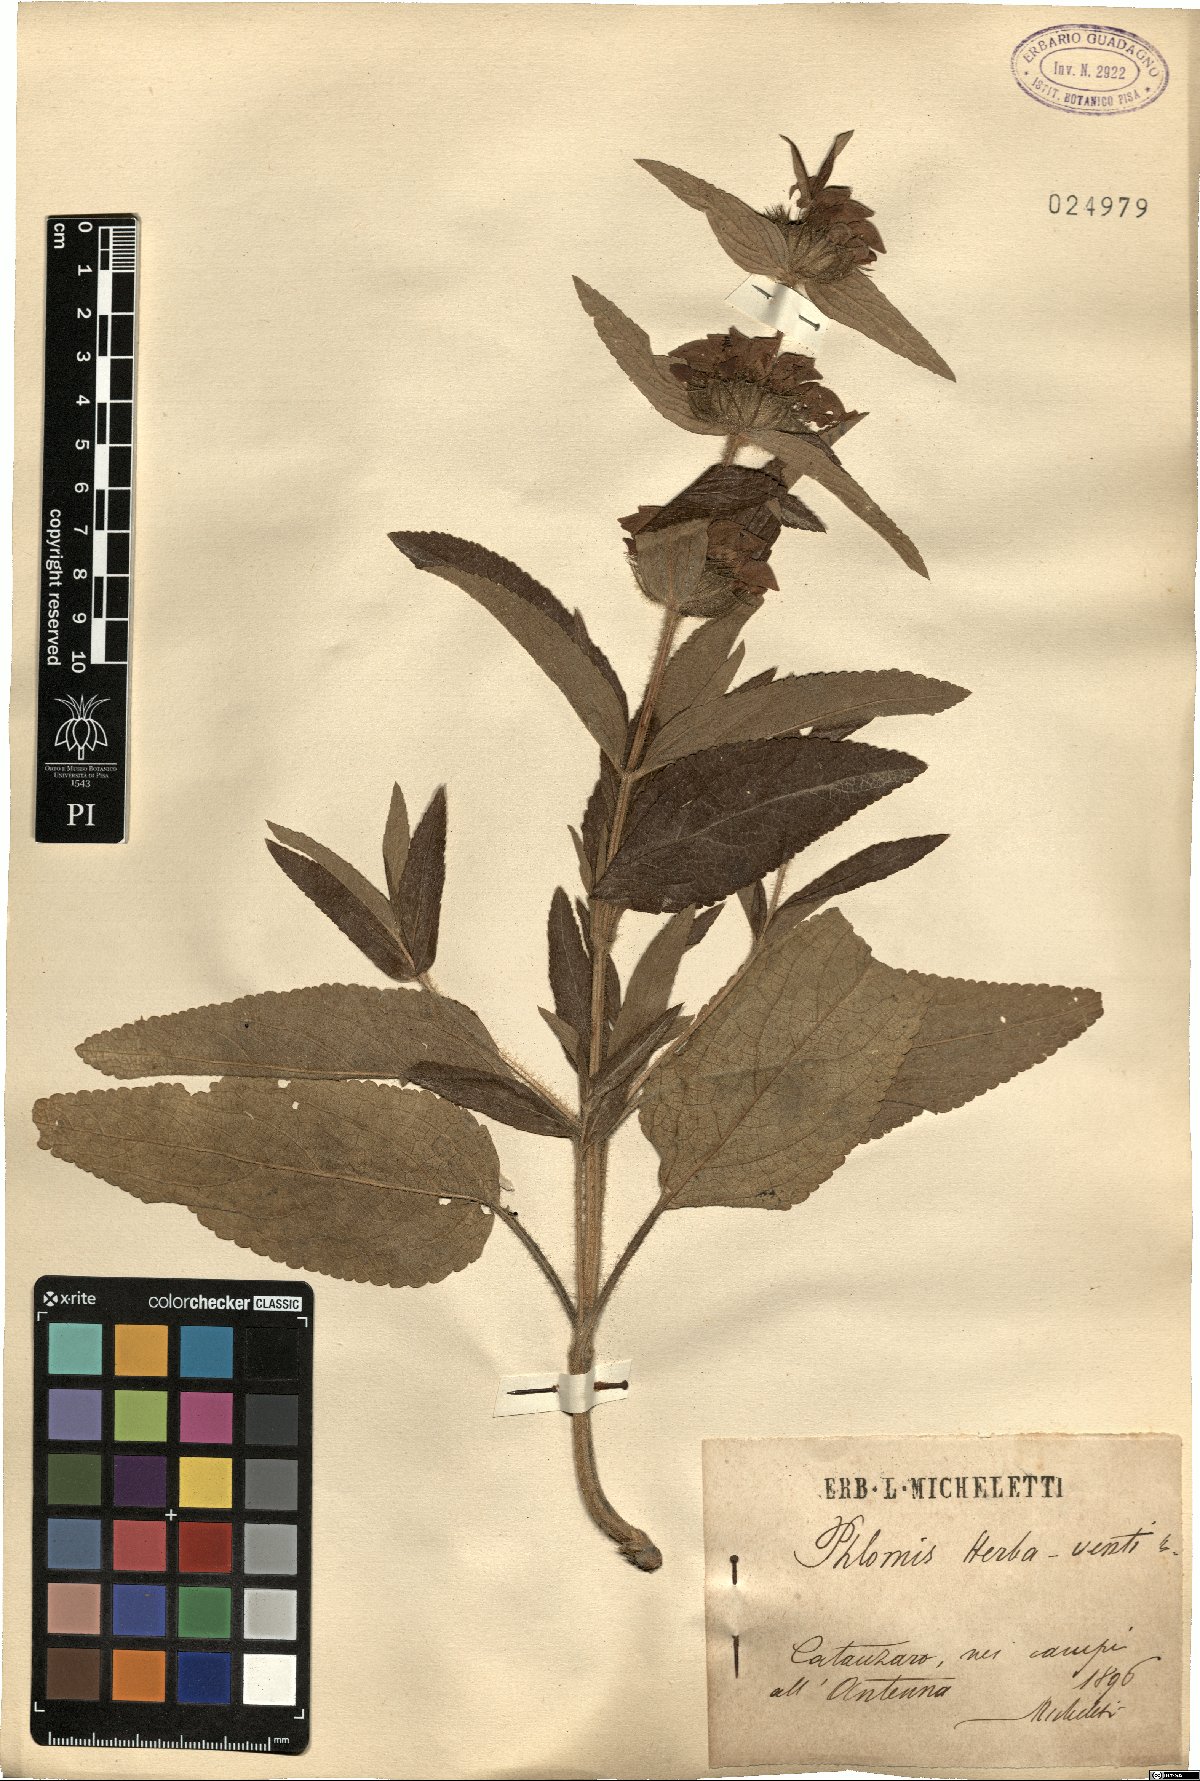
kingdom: Plantae
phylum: Tracheophyta
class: Magnoliopsida
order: Lamiales
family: Lamiaceae
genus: Phlomis
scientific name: Phlomis herba-venti
